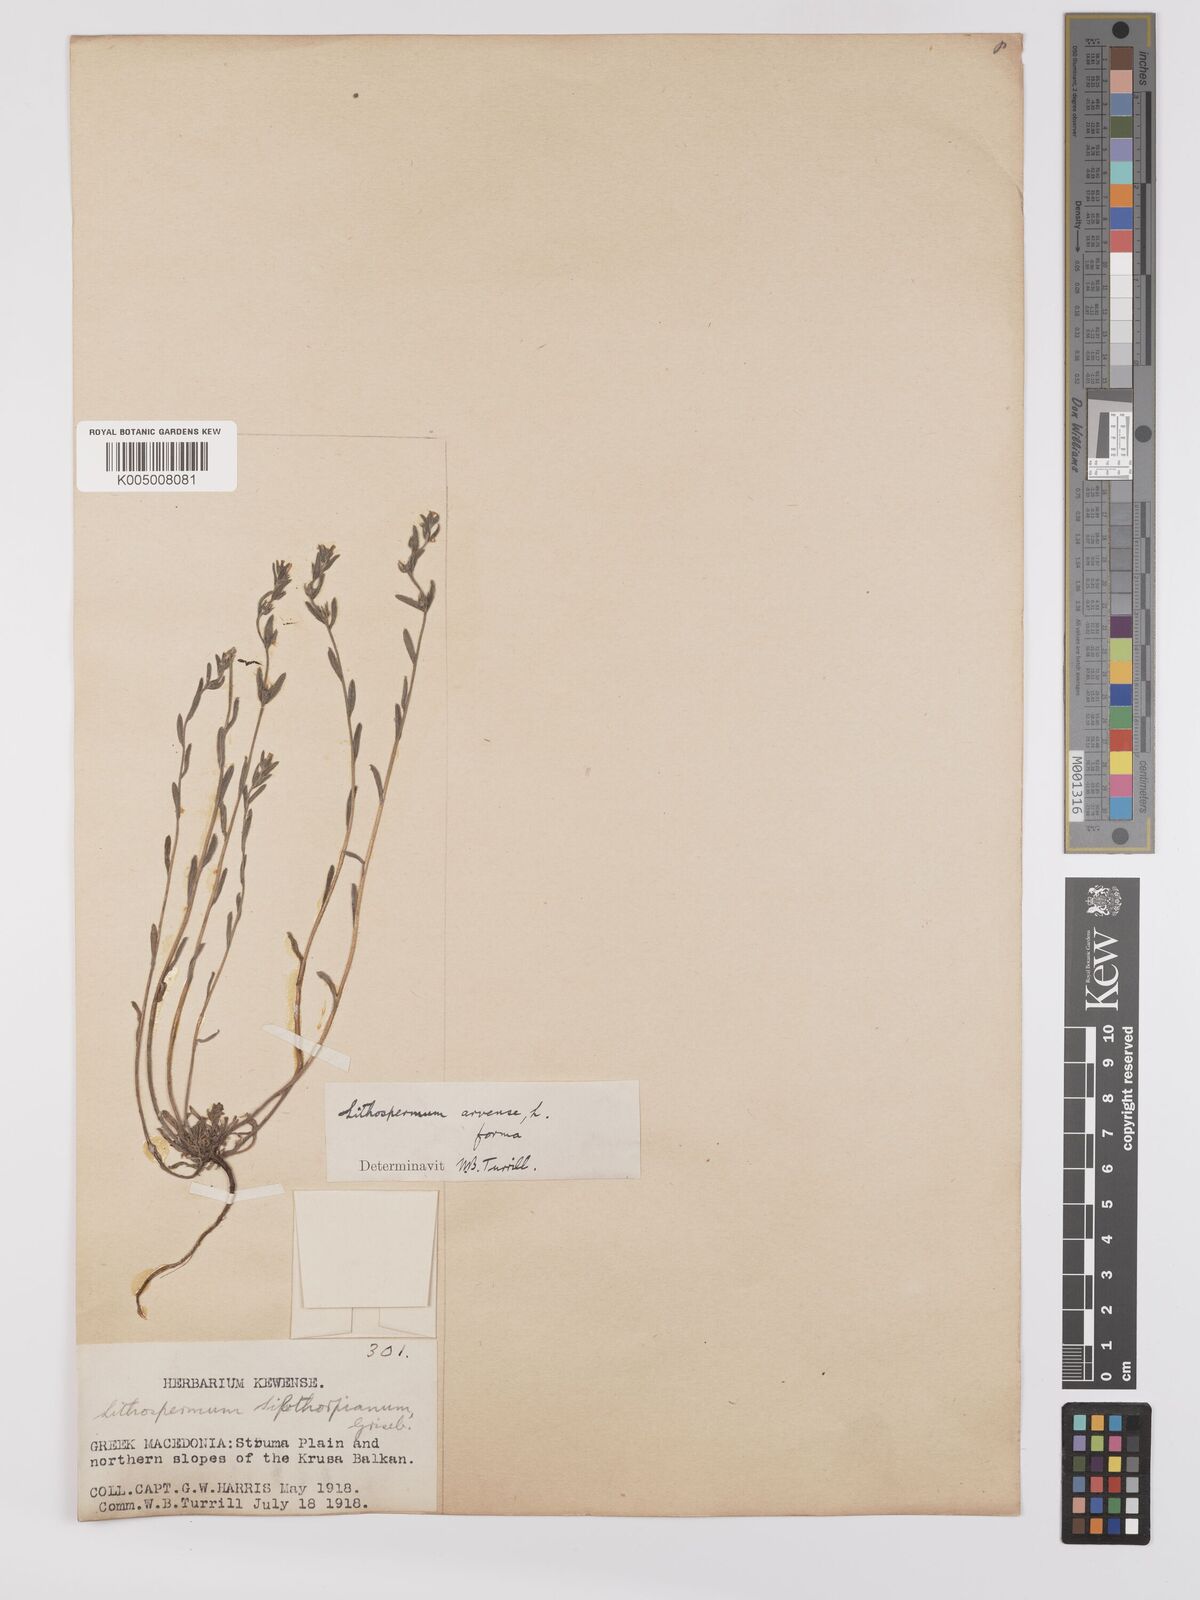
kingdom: Plantae
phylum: Tracheophyta
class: Magnoliopsida
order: Boraginales
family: Boraginaceae
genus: Buglossoides
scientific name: Buglossoides incrassata
